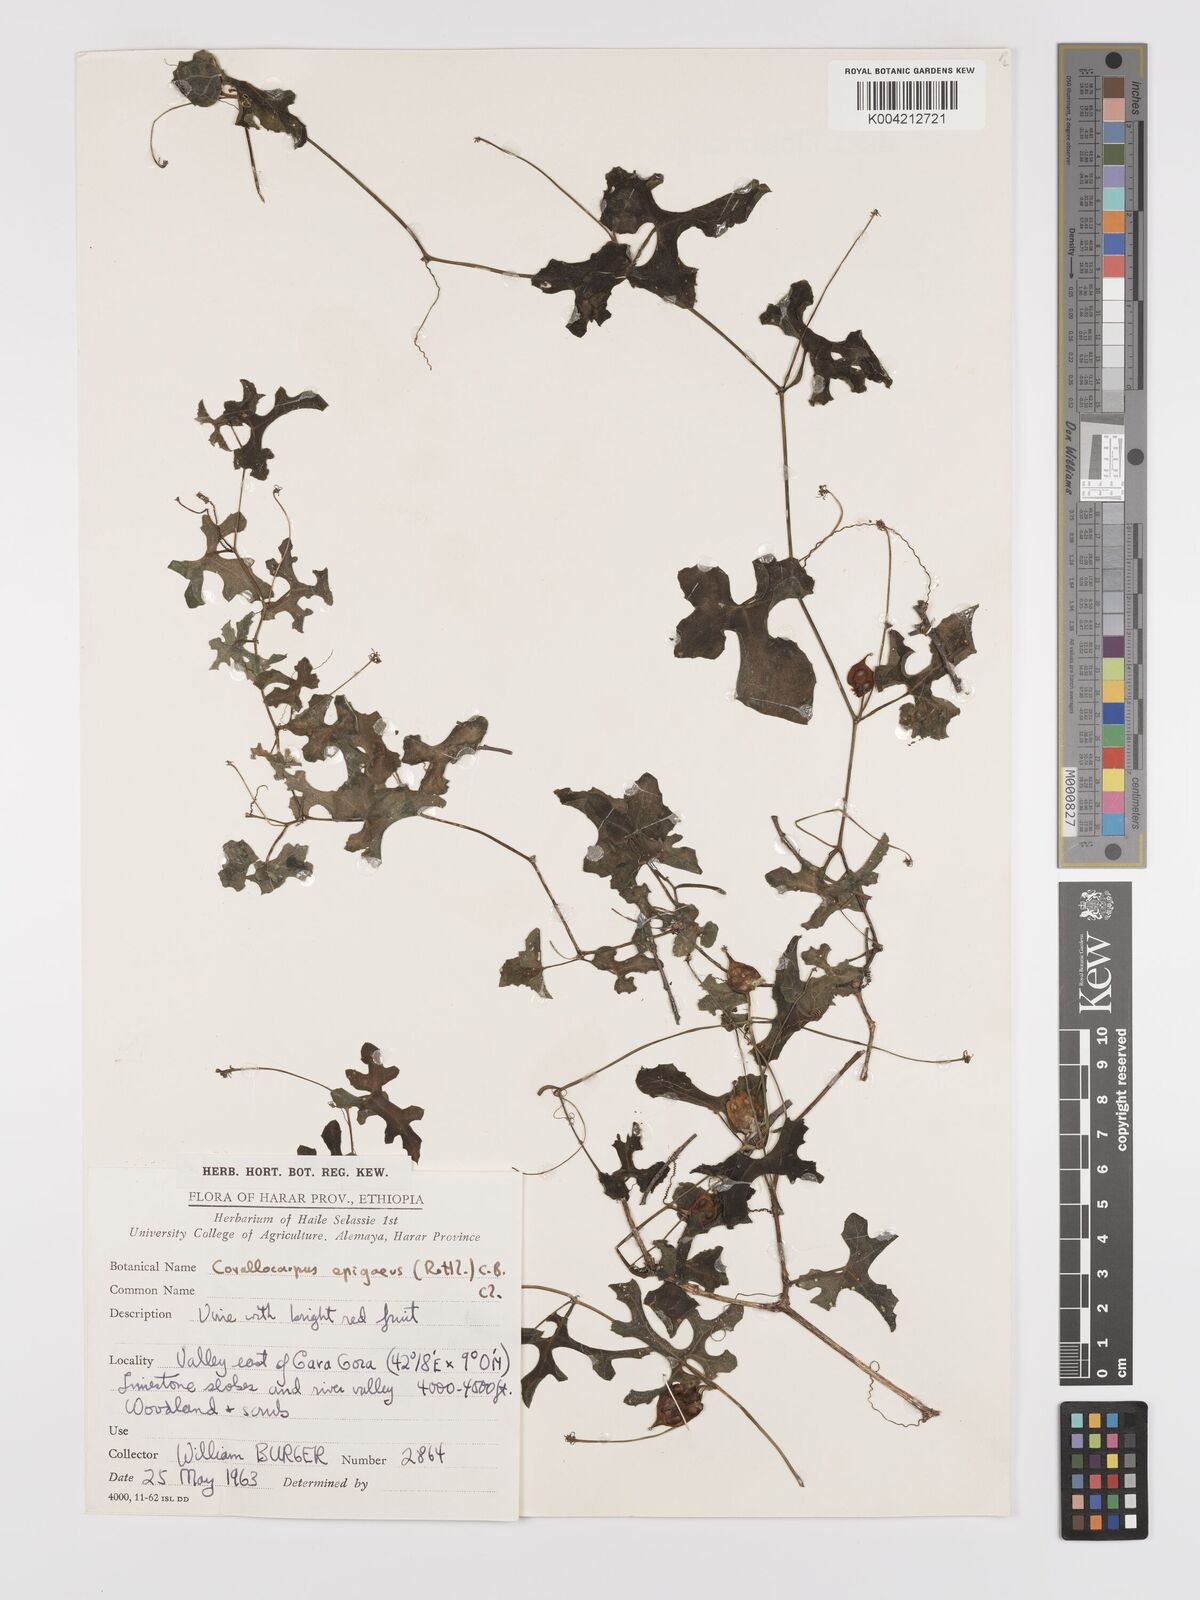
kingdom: Plantae
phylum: Tracheophyta
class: Magnoliopsida
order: Cucurbitales
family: Cucurbitaceae
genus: Corallocarpus
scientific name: Corallocarpus epigaeus
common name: Indian bryonia
